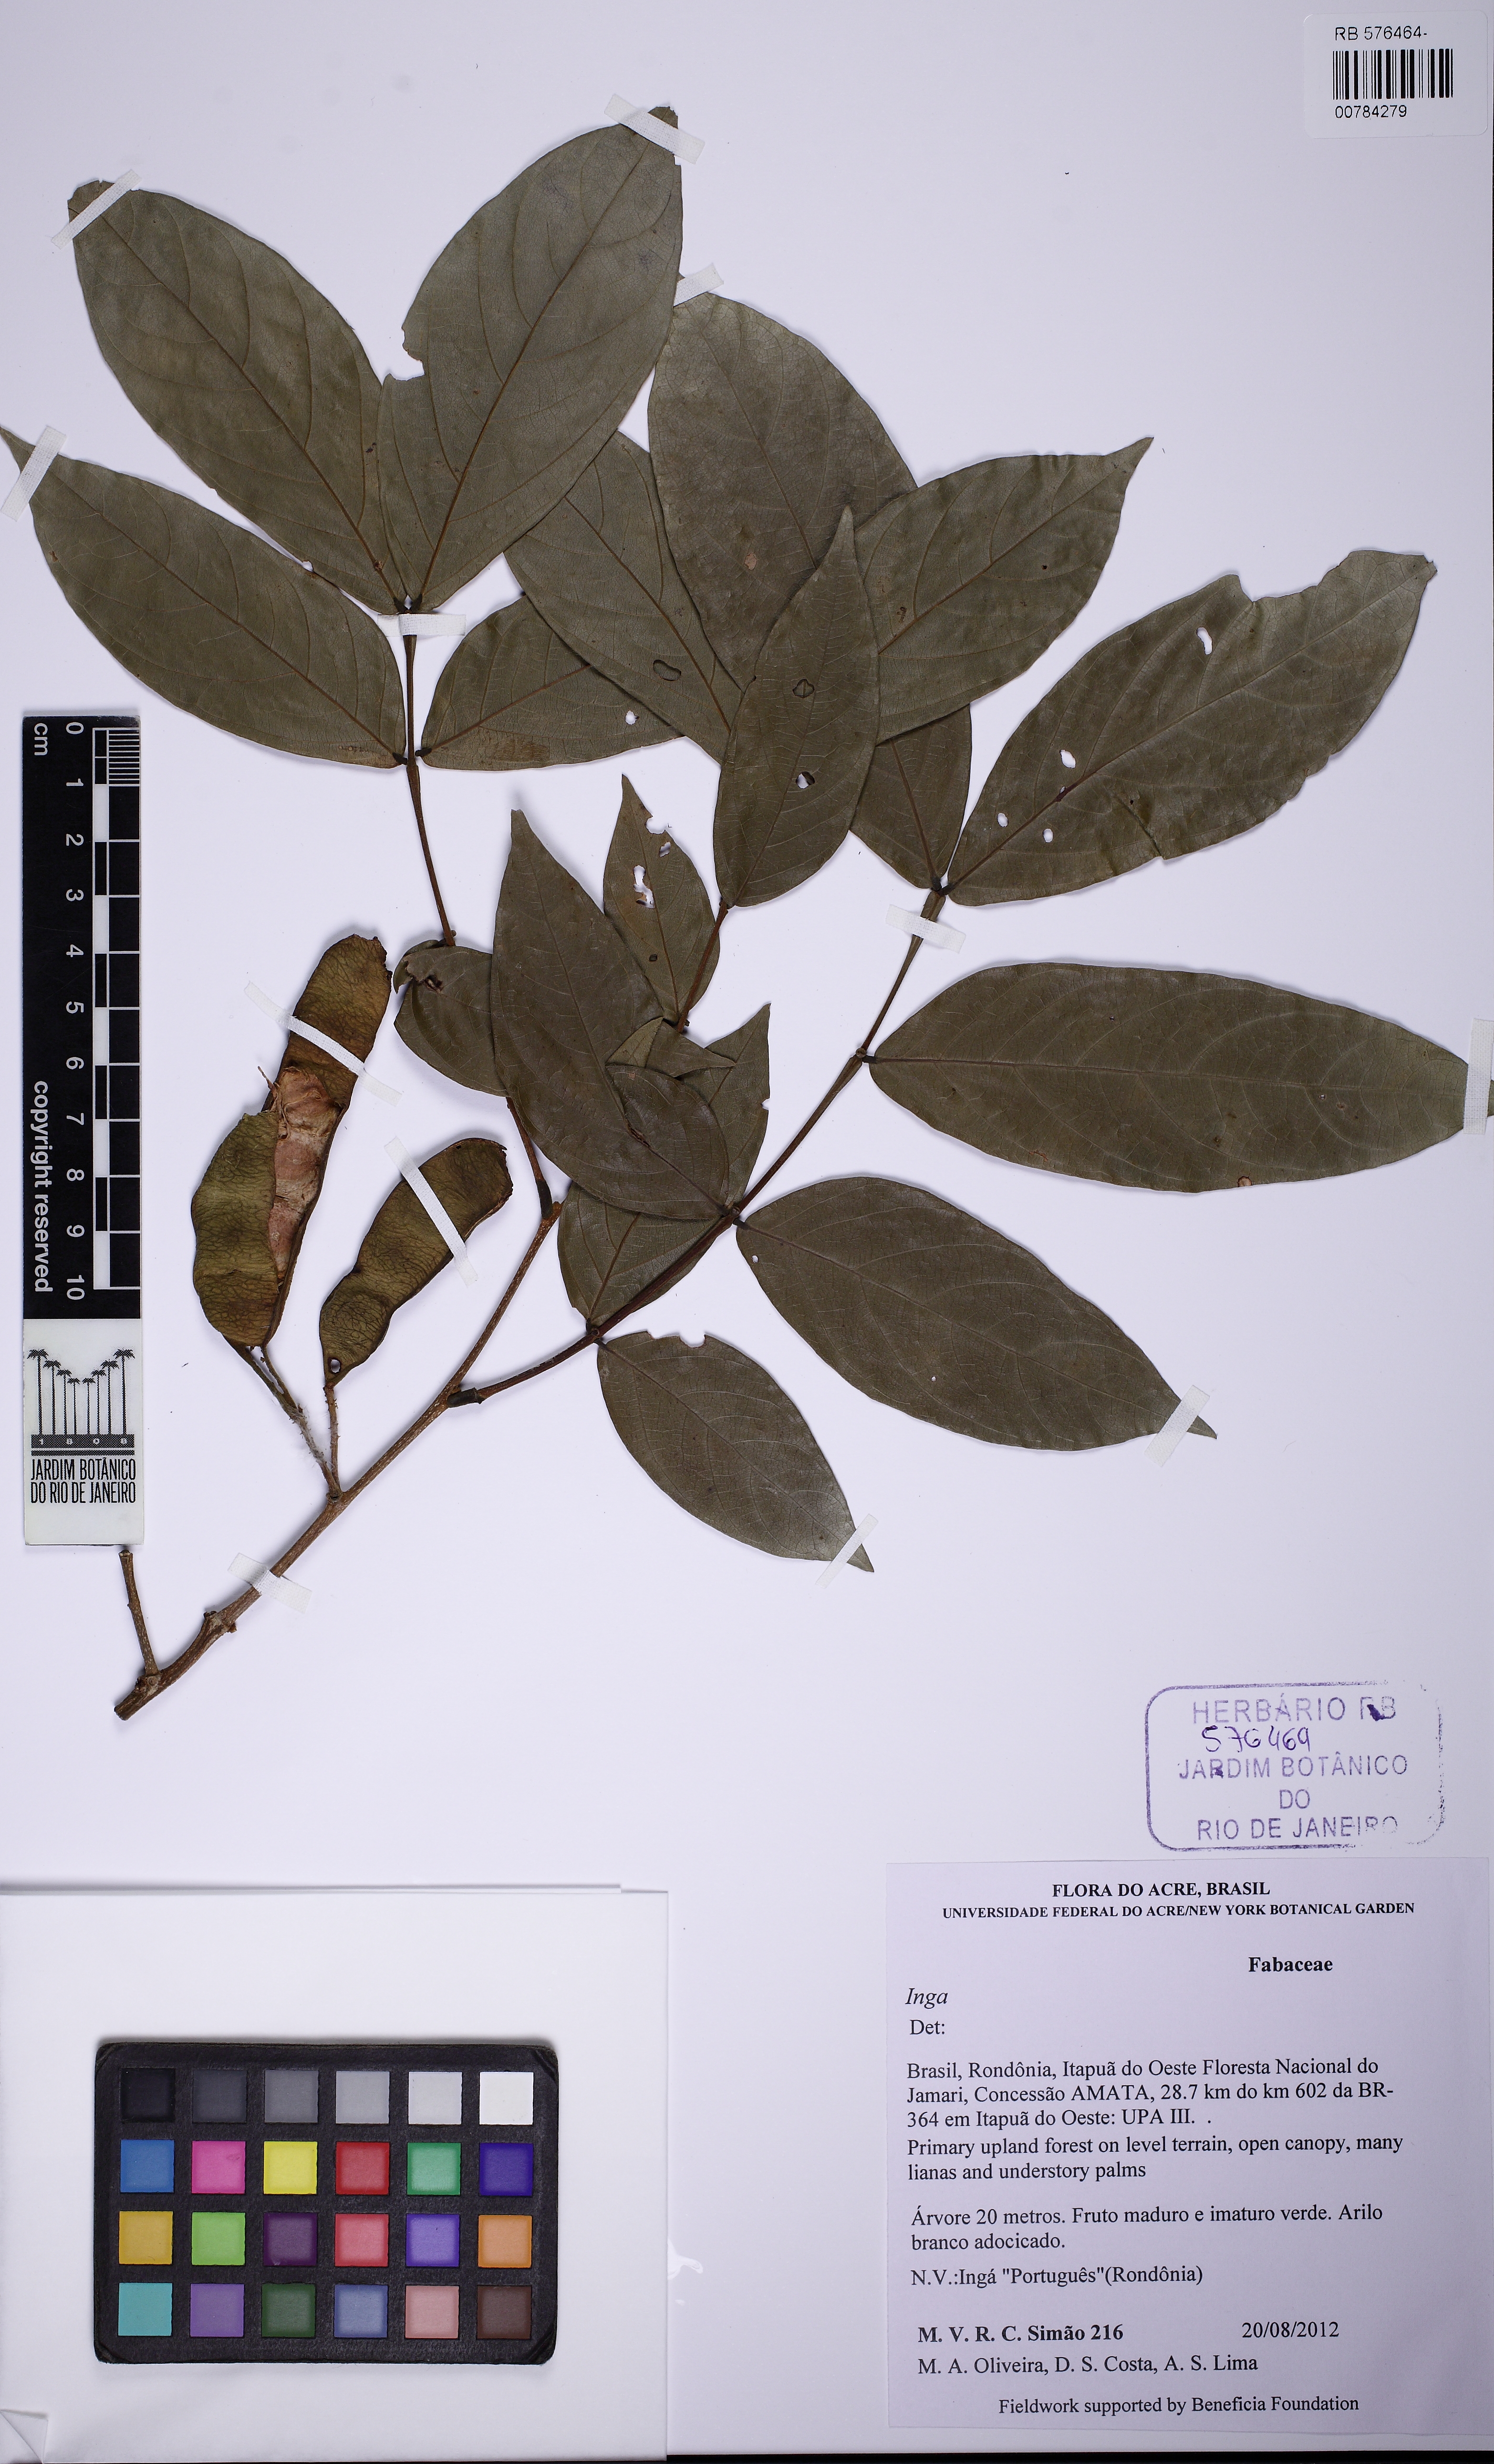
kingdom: Plantae
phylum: Tracheophyta
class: Magnoliopsida
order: Fabales
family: Fabaceae
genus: Inga
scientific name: Inga edulis
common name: Ice cream bean
